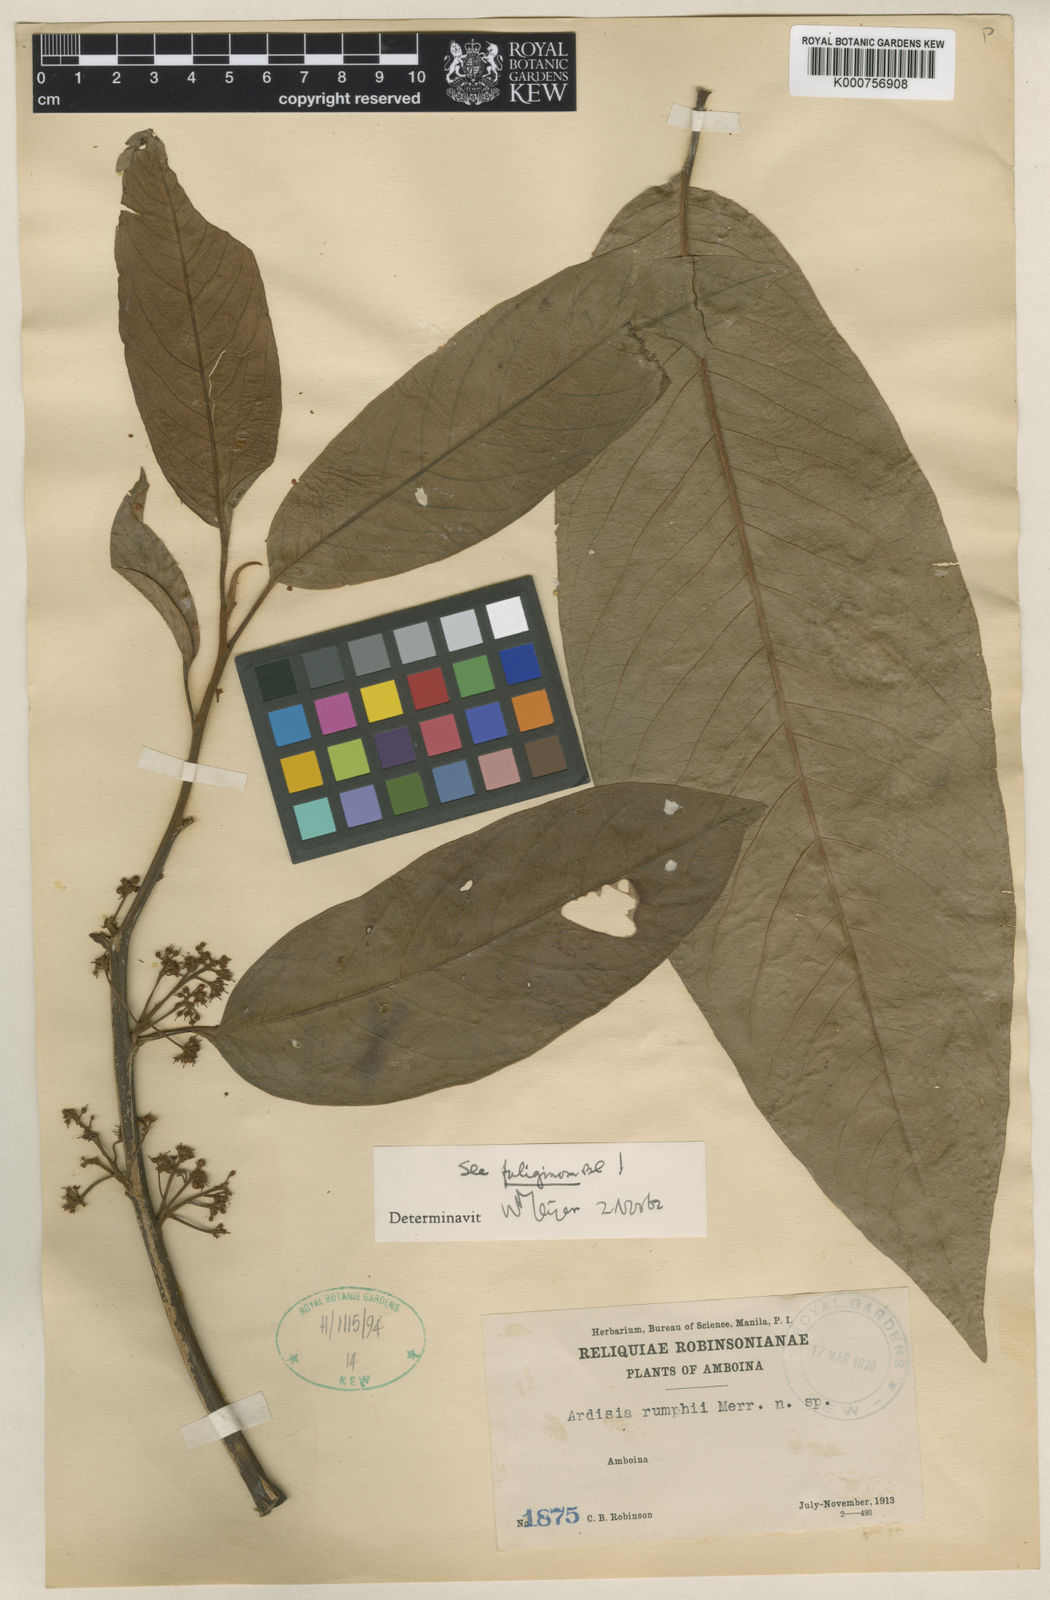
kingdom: Plantae
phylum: Tracheophyta
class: Magnoliopsida
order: Ericales
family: Primulaceae
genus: Ardisia
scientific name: Ardisia rumphii
